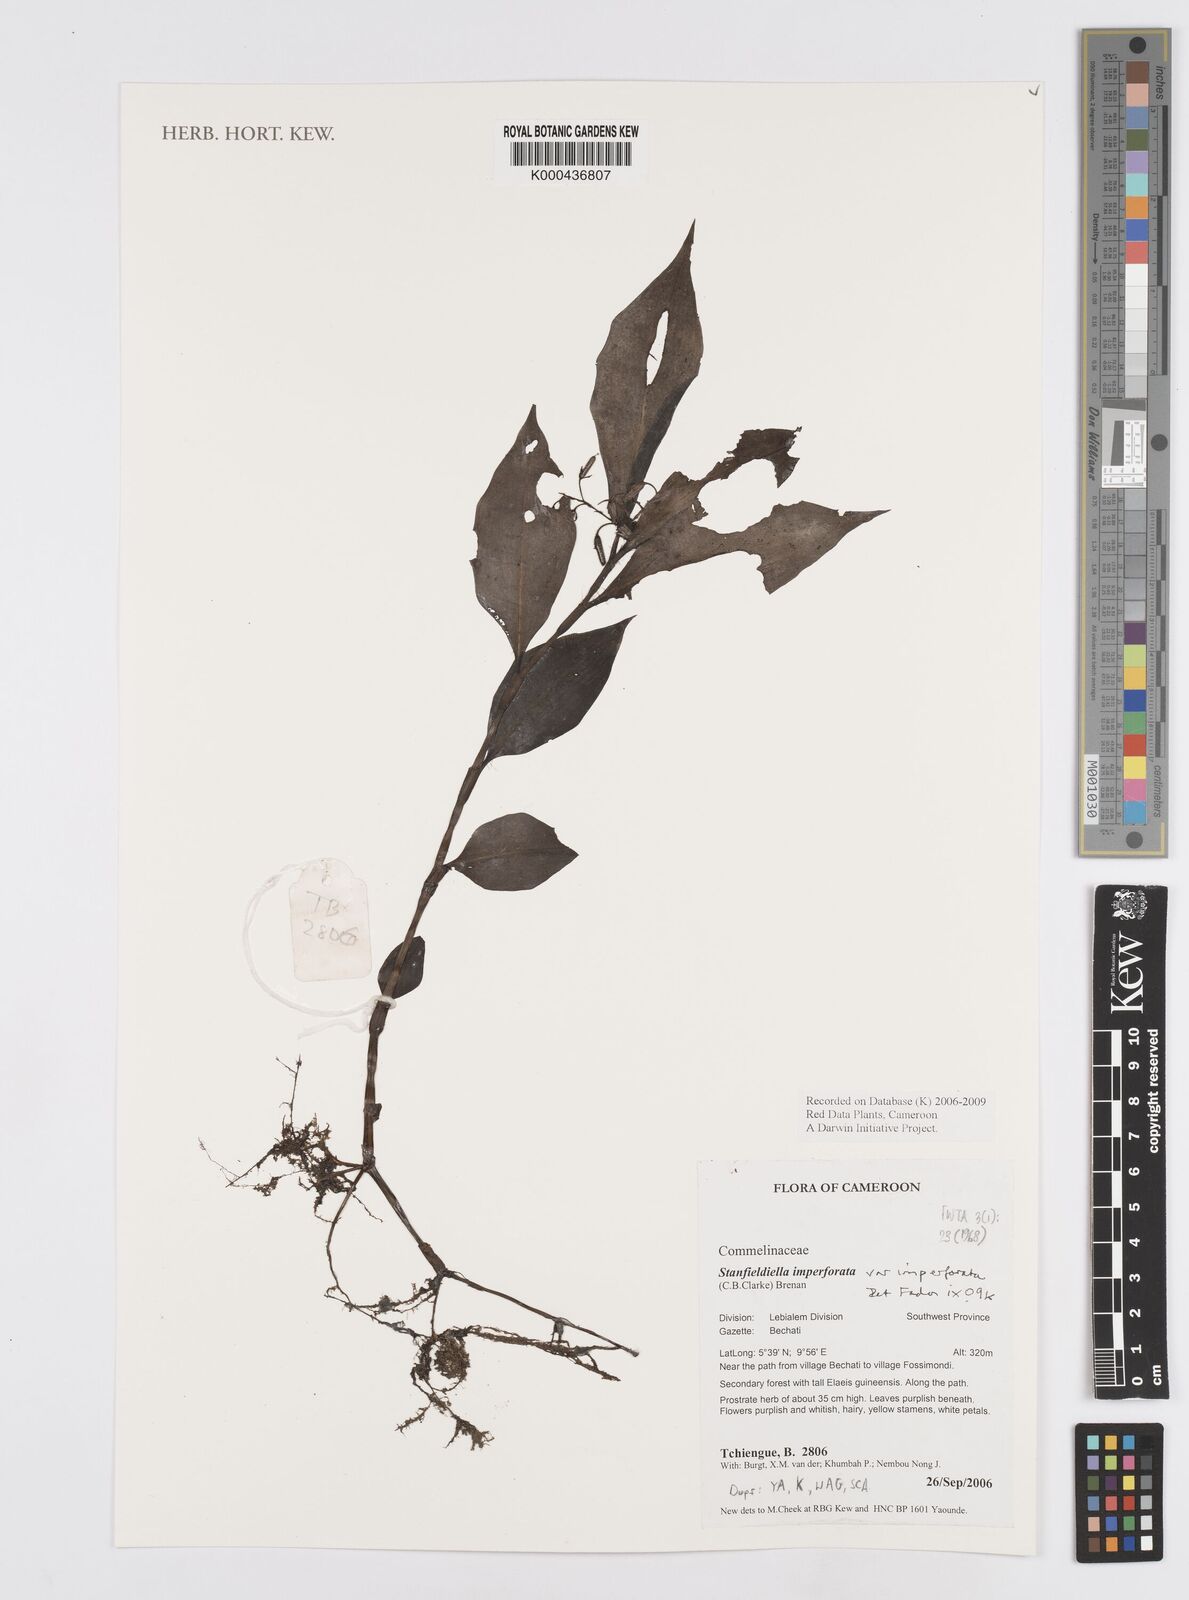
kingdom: Plantae
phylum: Tracheophyta
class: Liliopsida
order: Commelinales
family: Commelinaceae
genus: Stanfieldiella
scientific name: Stanfieldiella imperforata
